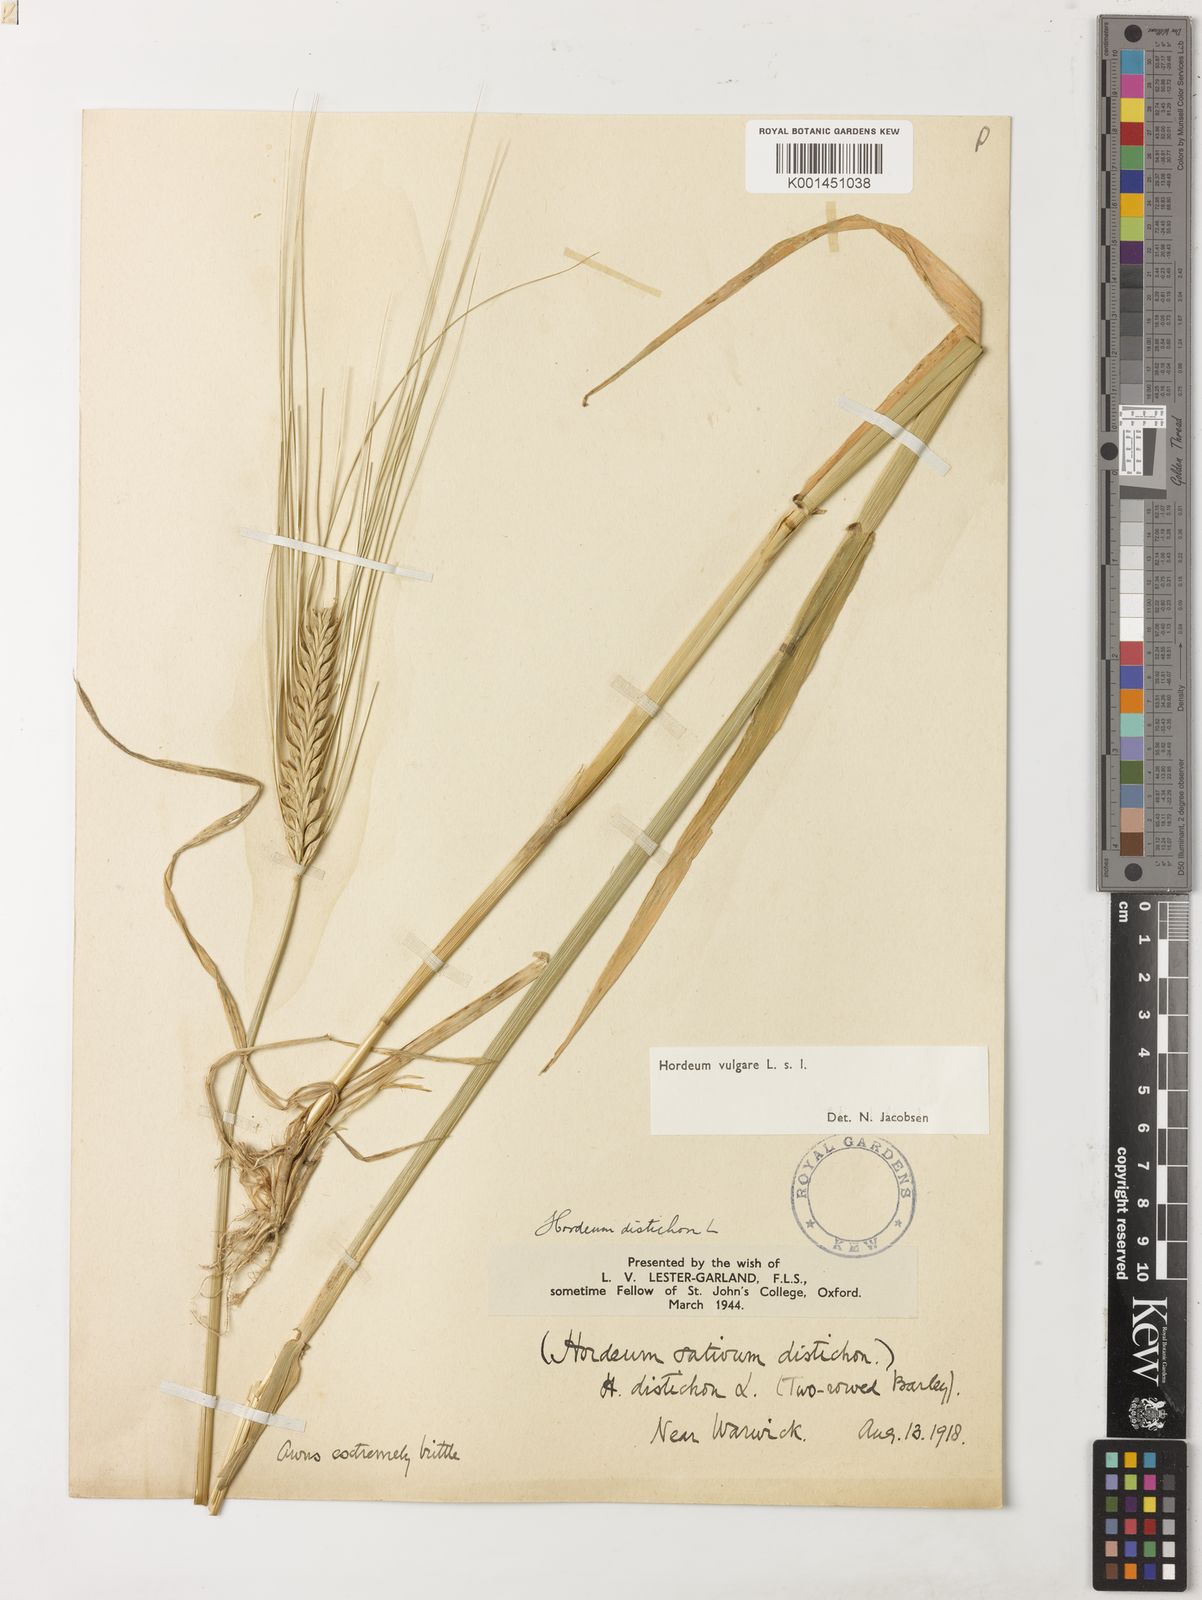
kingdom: Plantae
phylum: Tracheophyta
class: Liliopsida
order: Poales
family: Poaceae
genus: Hordeum
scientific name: Hordeum vulgare
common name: Common barley
